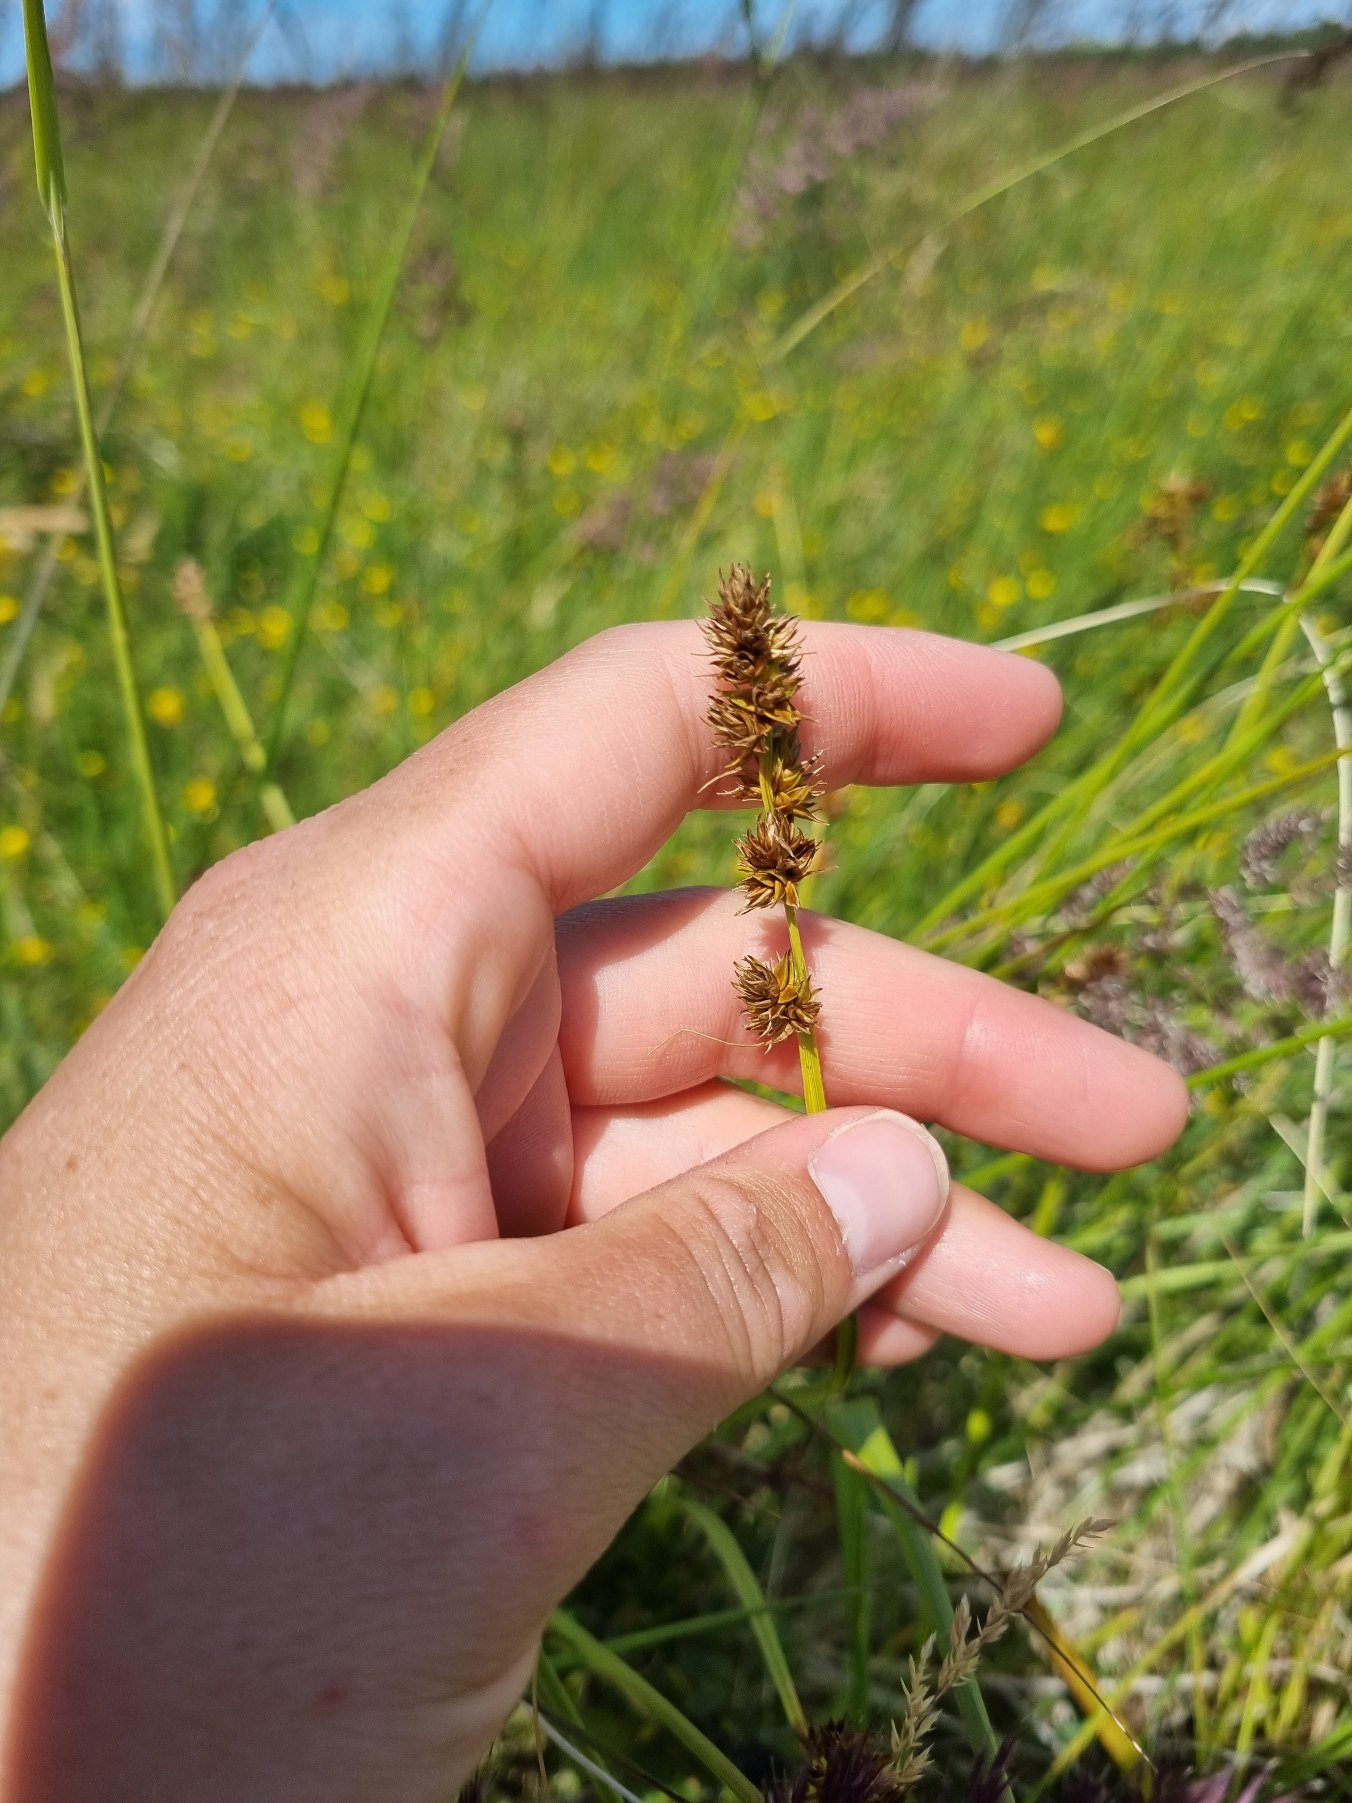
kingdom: Plantae
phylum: Tracheophyta
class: Liliopsida
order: Poales
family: Cyperaceae
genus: Carex
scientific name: Carex otrubae
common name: Sylt-star
